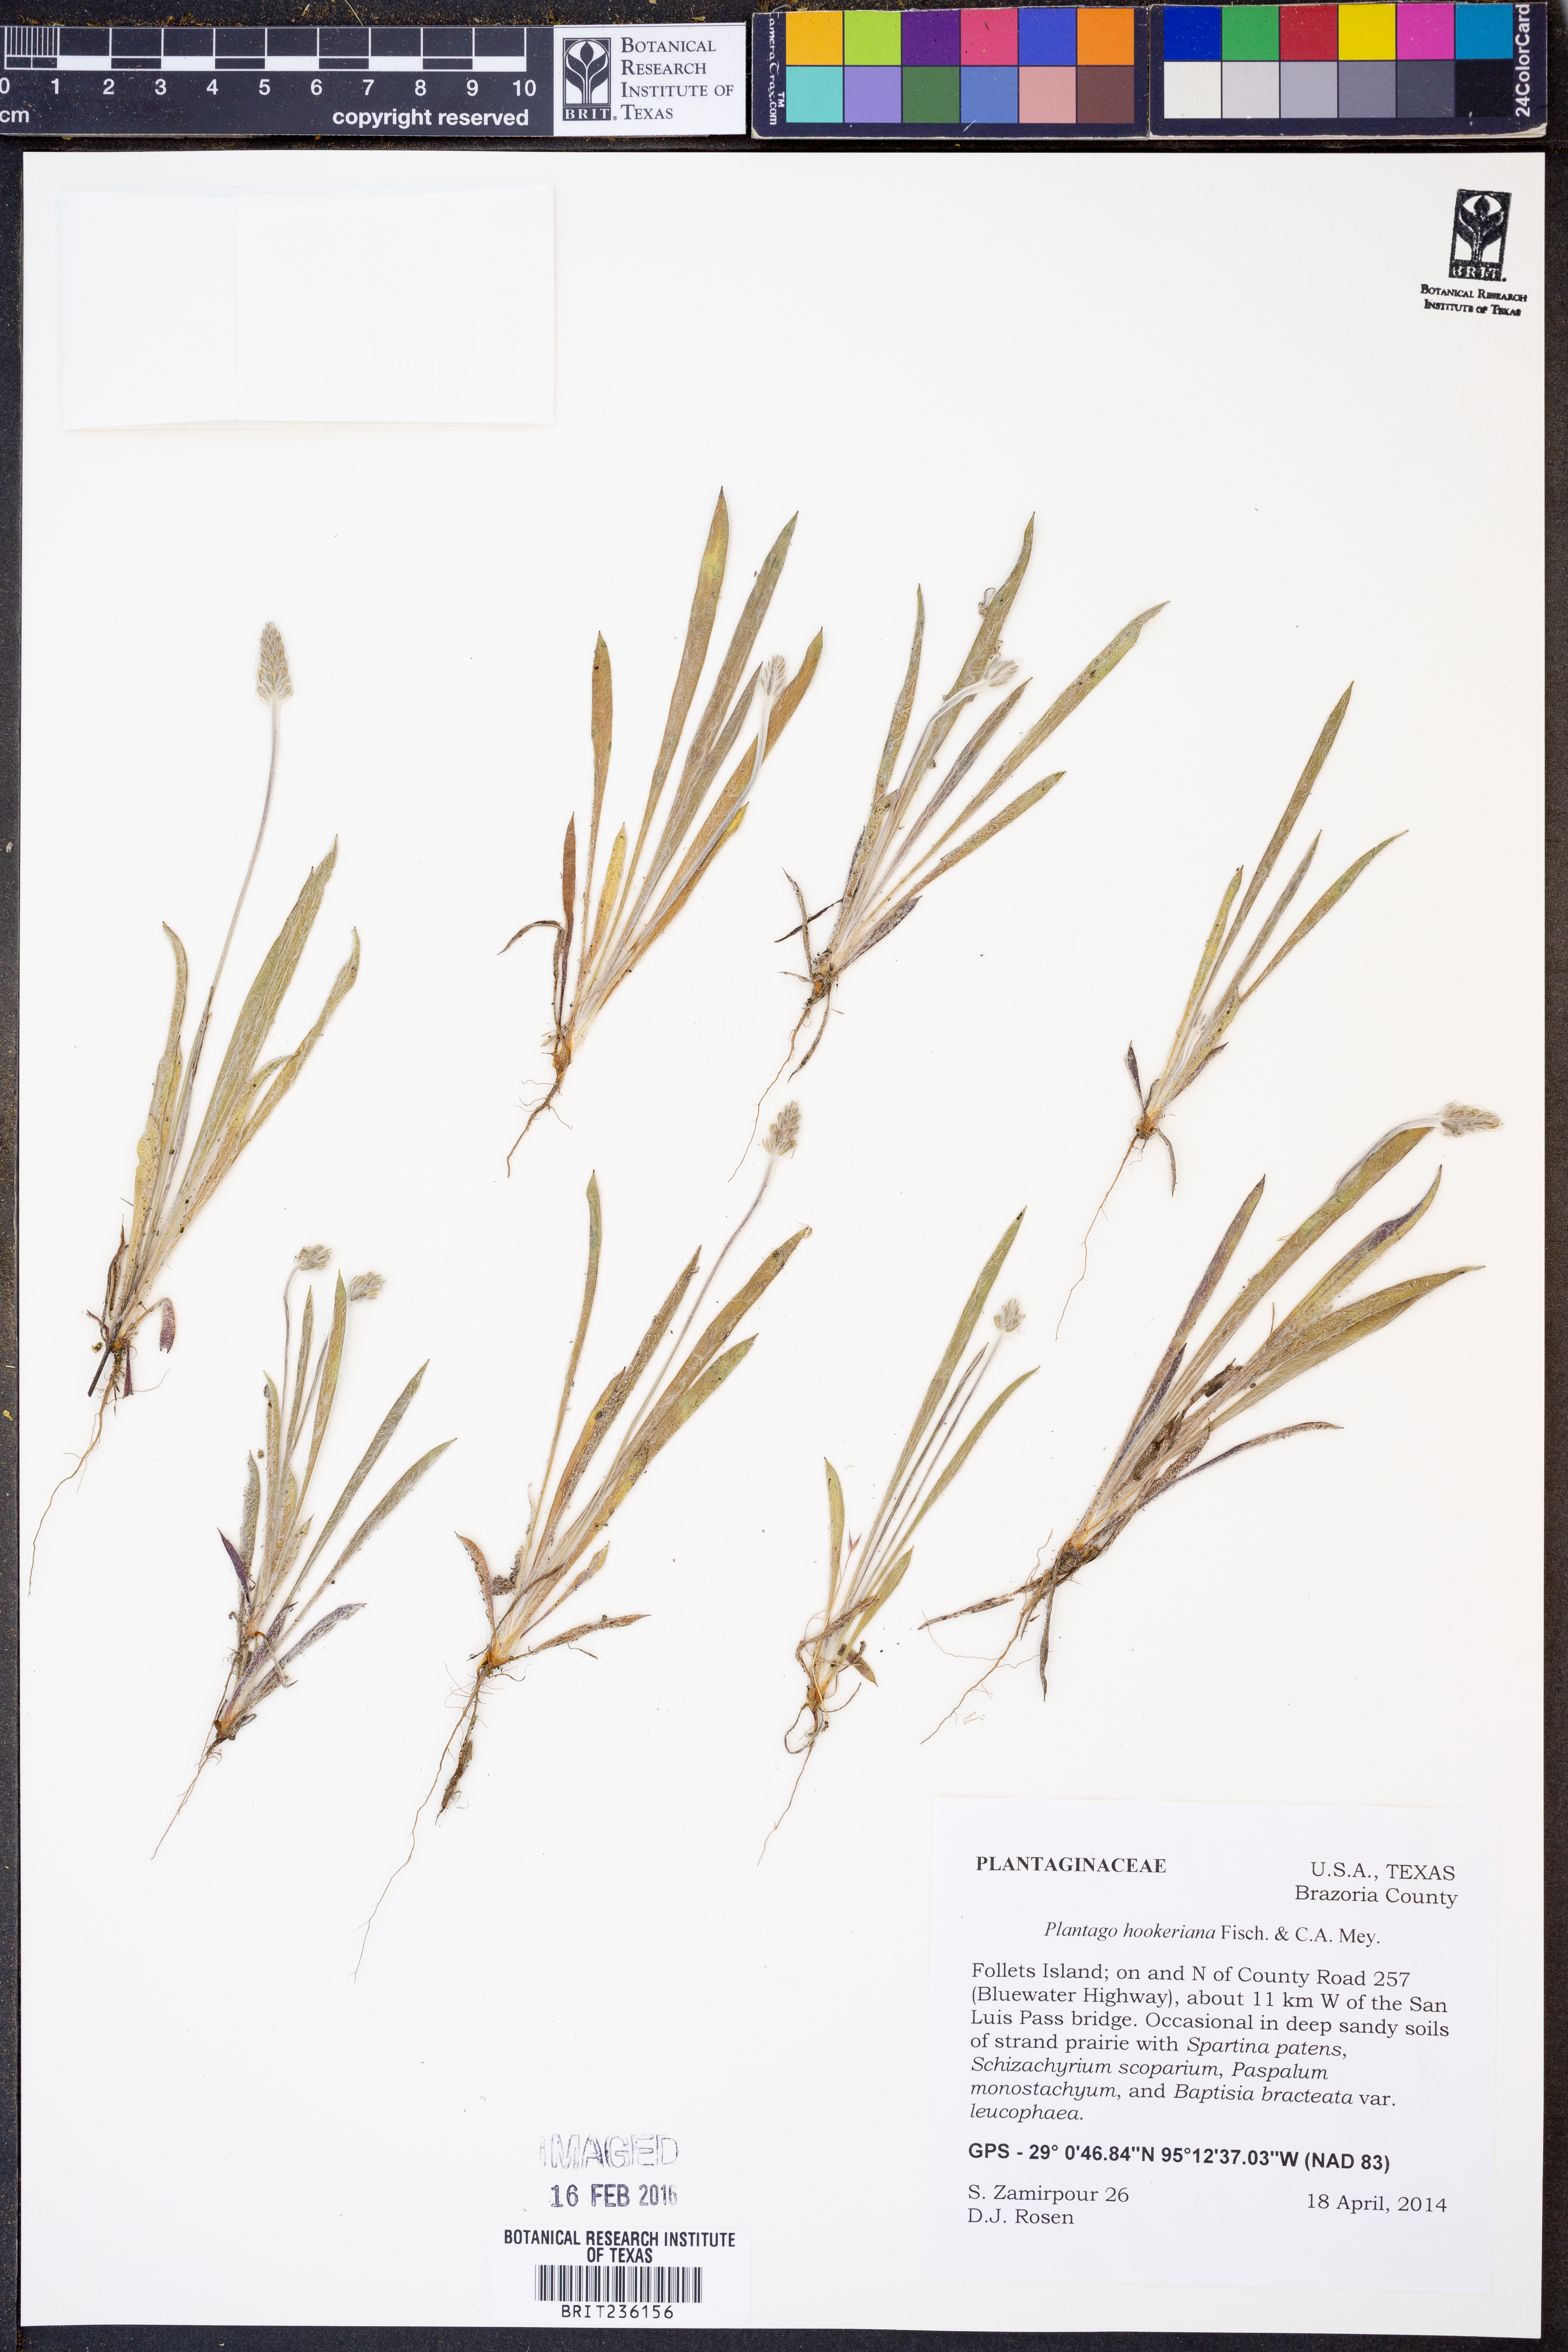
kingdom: Plantae
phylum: Tracheophyta
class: Magnoliopsida
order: Lamiales
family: Plantaginaceae
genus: Plantago
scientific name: Plantago hookeriana
